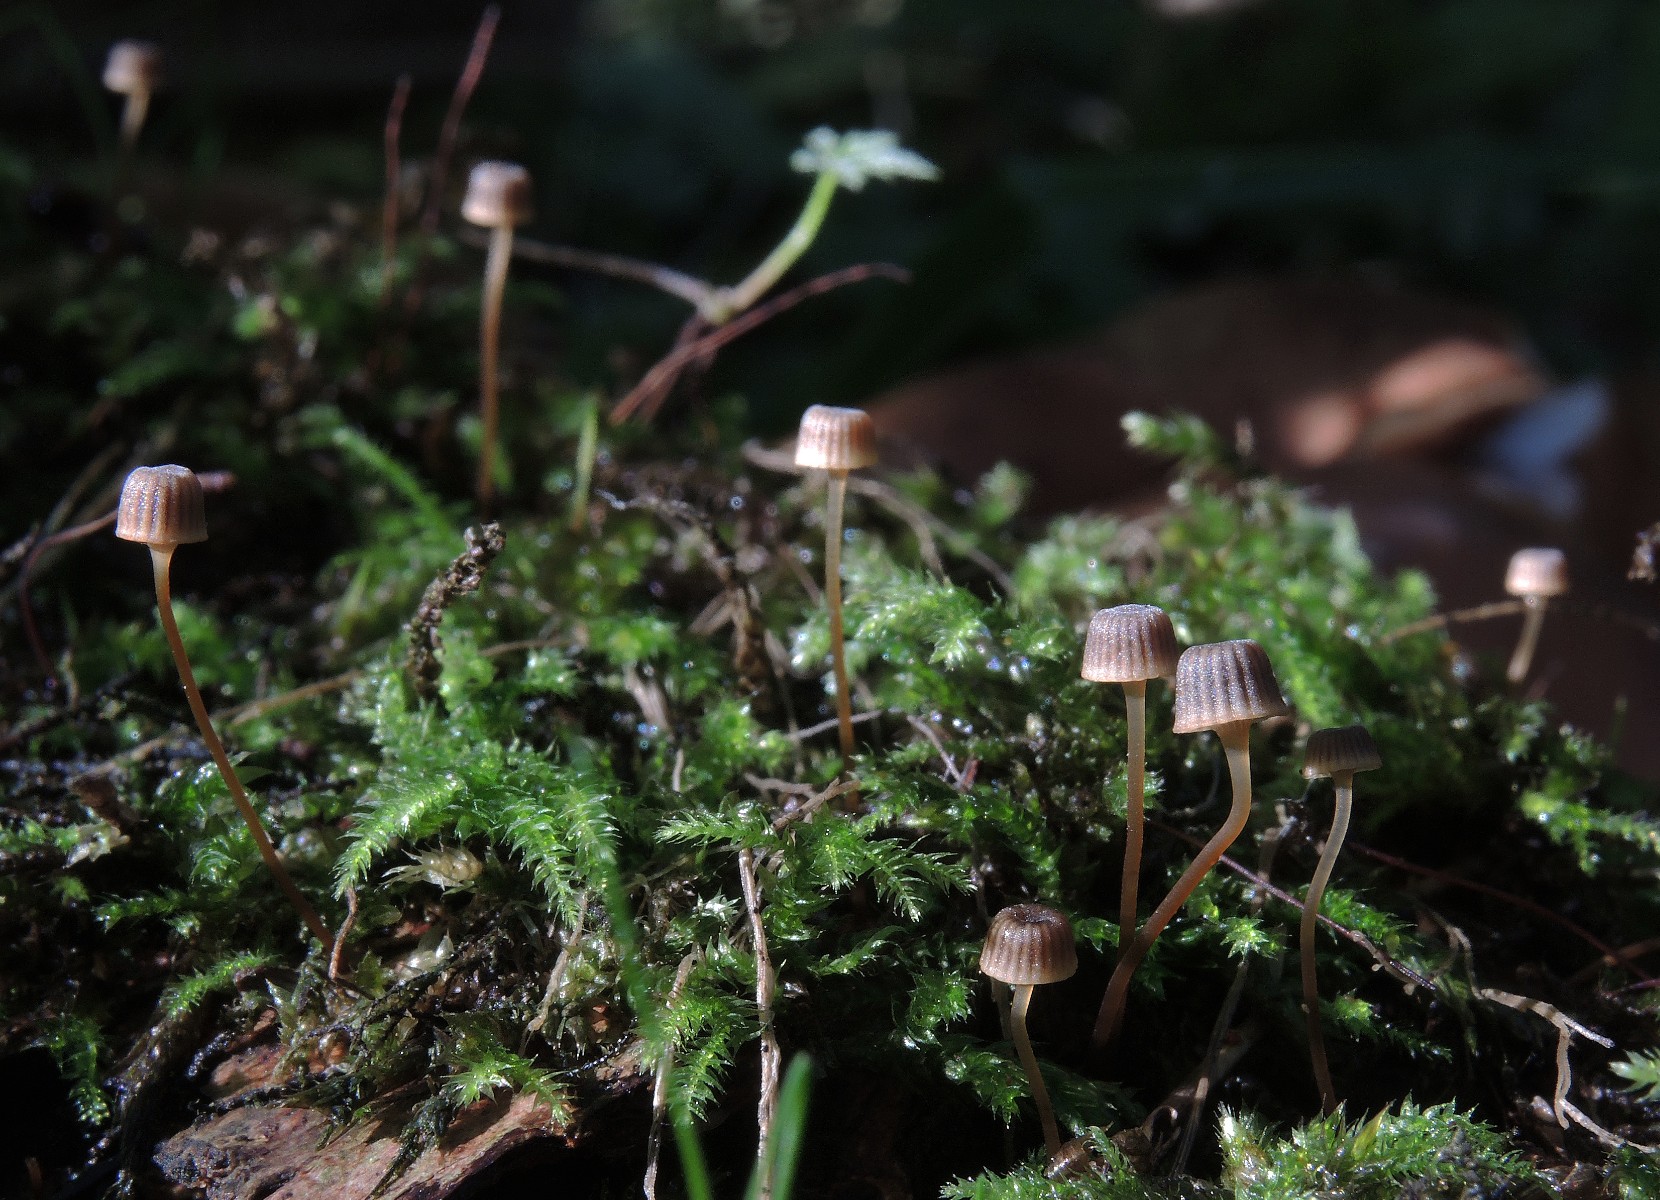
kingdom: Fungi
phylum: Basidiomycota
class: Agaricomycetes
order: Agaricales
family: Mycenaceae
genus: Mycena
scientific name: Mycena picta
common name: kantet huesvamp
